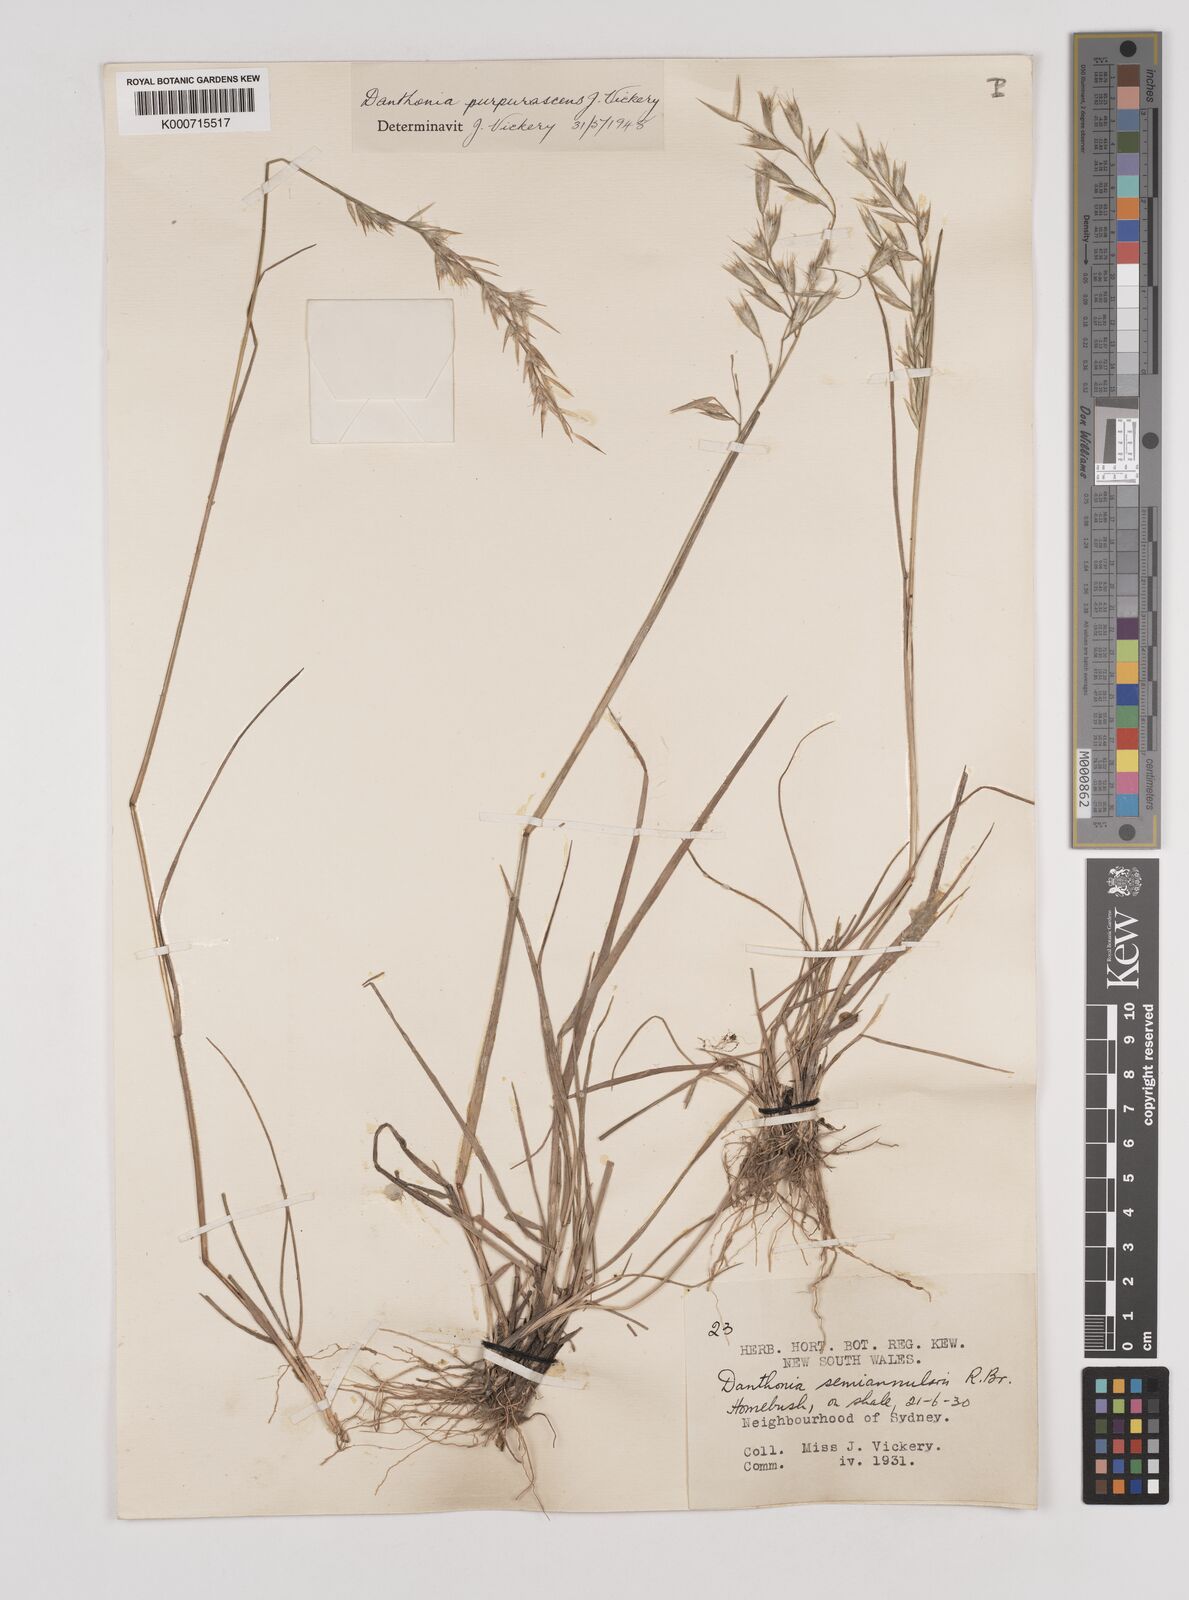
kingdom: Plantae
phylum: Tracheophyta
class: Liliopsida
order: Poales
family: Poaceae
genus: Rytidosperma
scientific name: Rytidosperma tenuius
